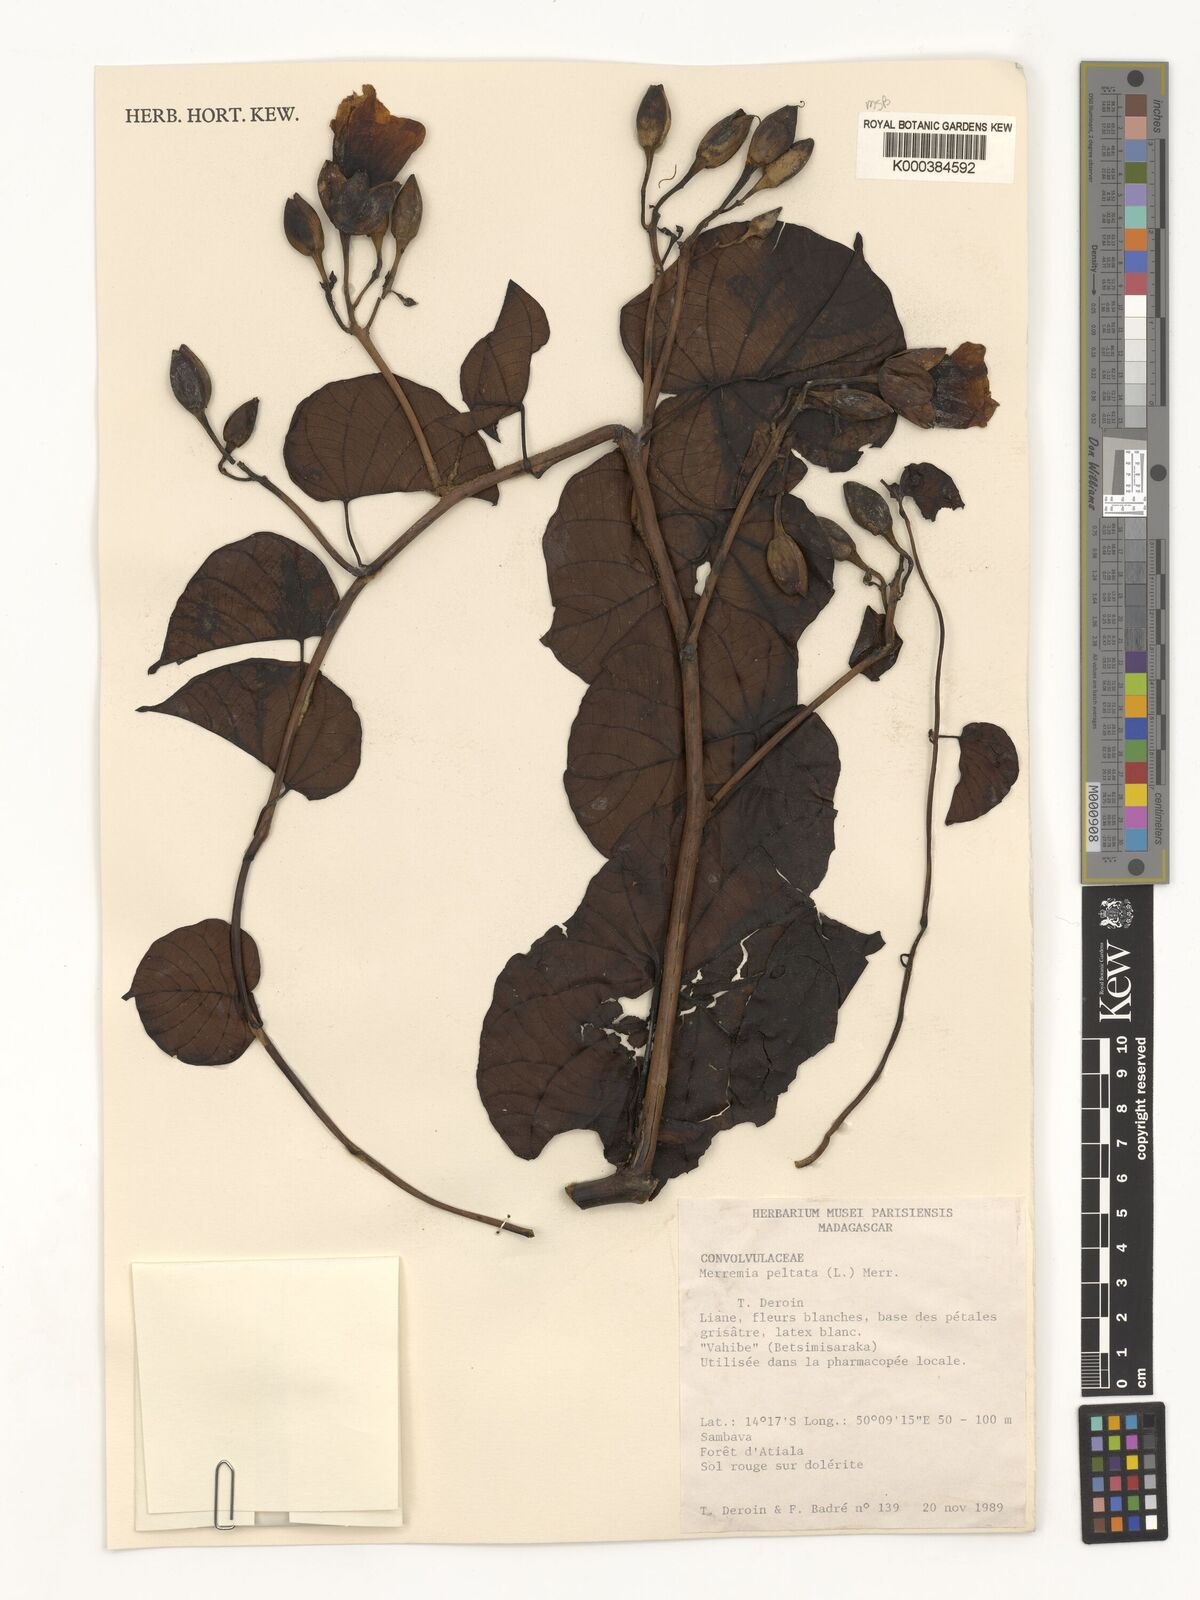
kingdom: Plantae
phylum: Tracheophyta
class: Magnoliopsida
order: Solanales
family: Convolvulaceae
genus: Decalobanthus
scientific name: Decalobanthus peltatus
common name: Merremia
